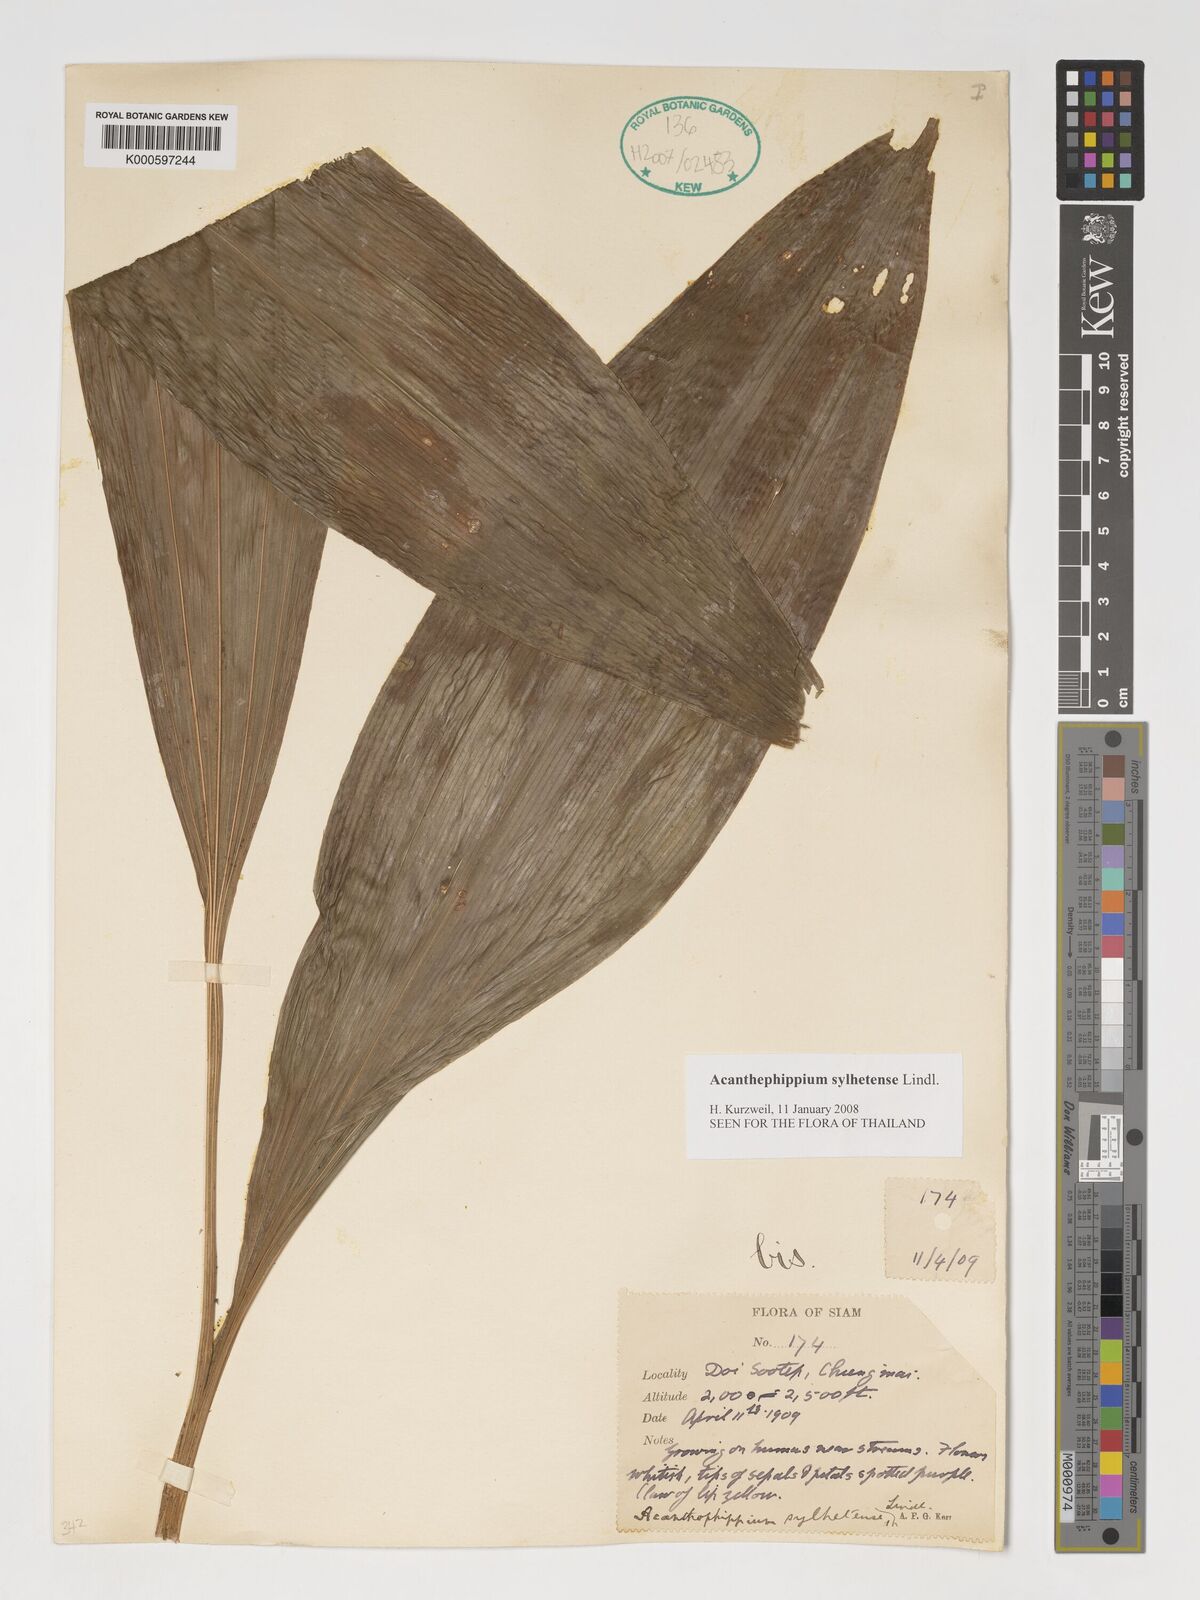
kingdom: Plantae
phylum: Tracheophyta
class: Liliopsida
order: Asparagales
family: Orchidaceae
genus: Acanthophippium
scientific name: Acanthophippium sylhetense
